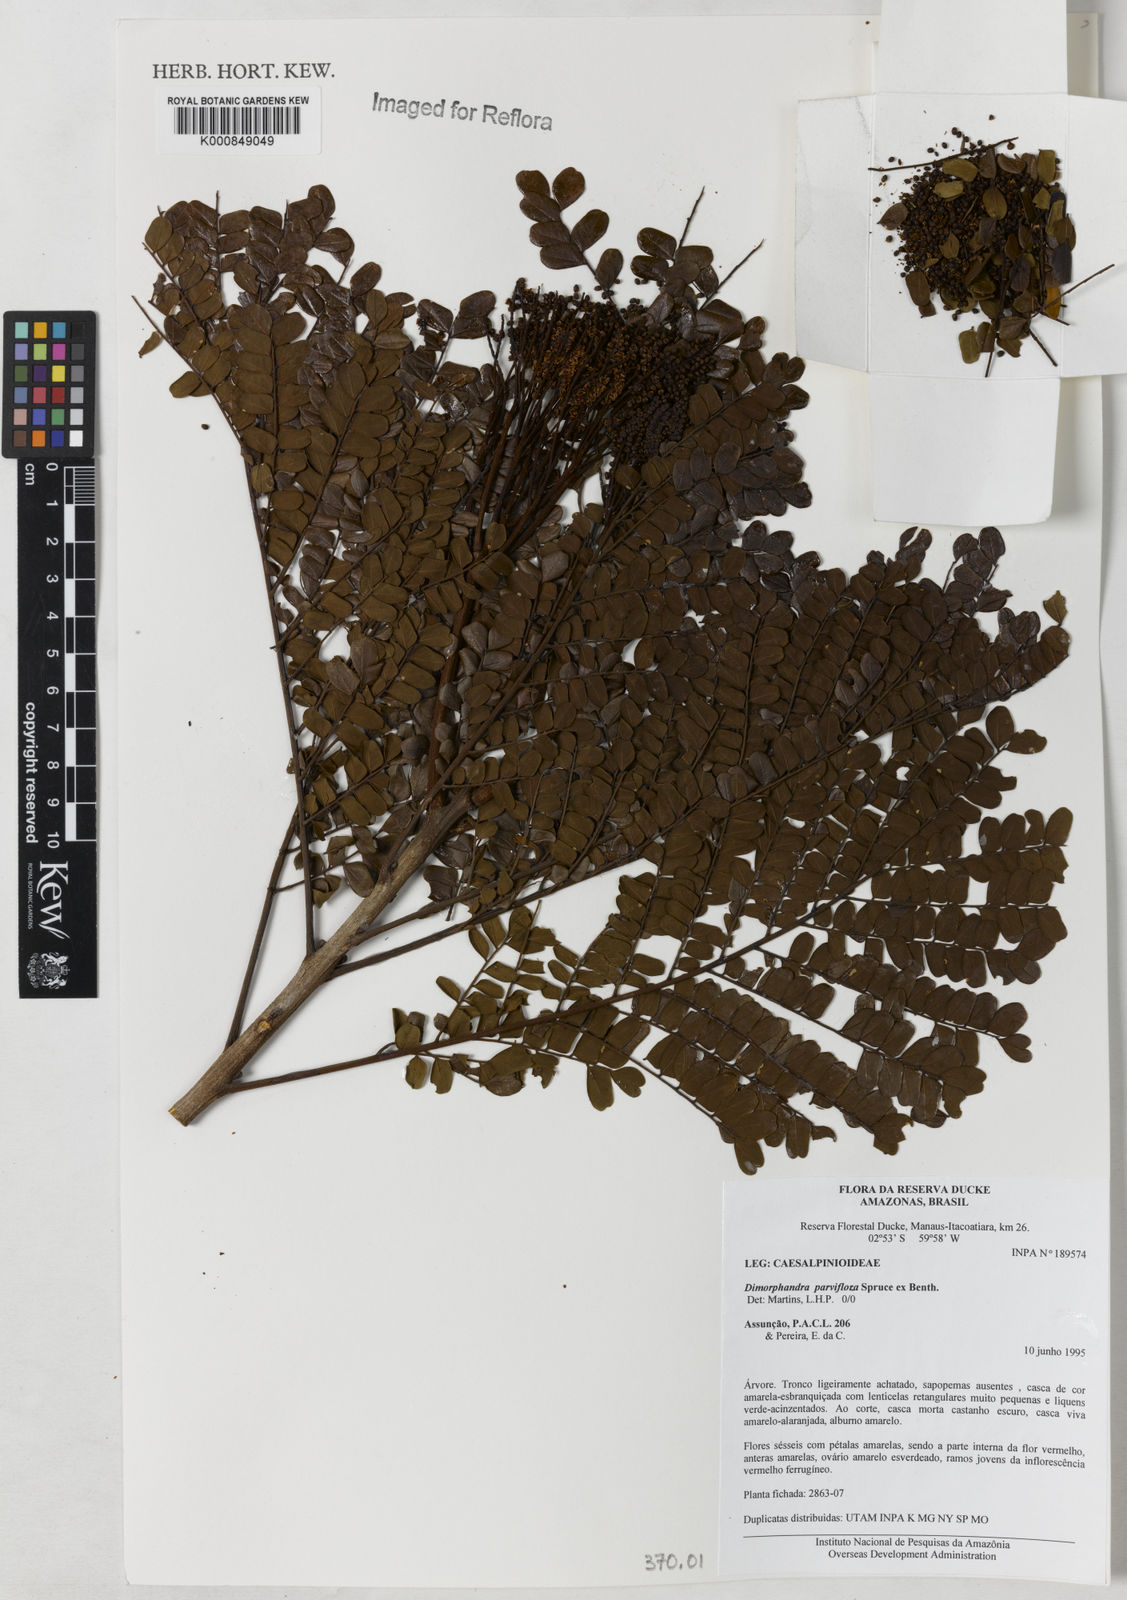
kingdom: Plantae
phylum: Tracheophyta
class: Magnoliopsida
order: Fabales
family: Fabaceae
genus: Dimorphandra
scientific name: Dimorphandra parviflora
